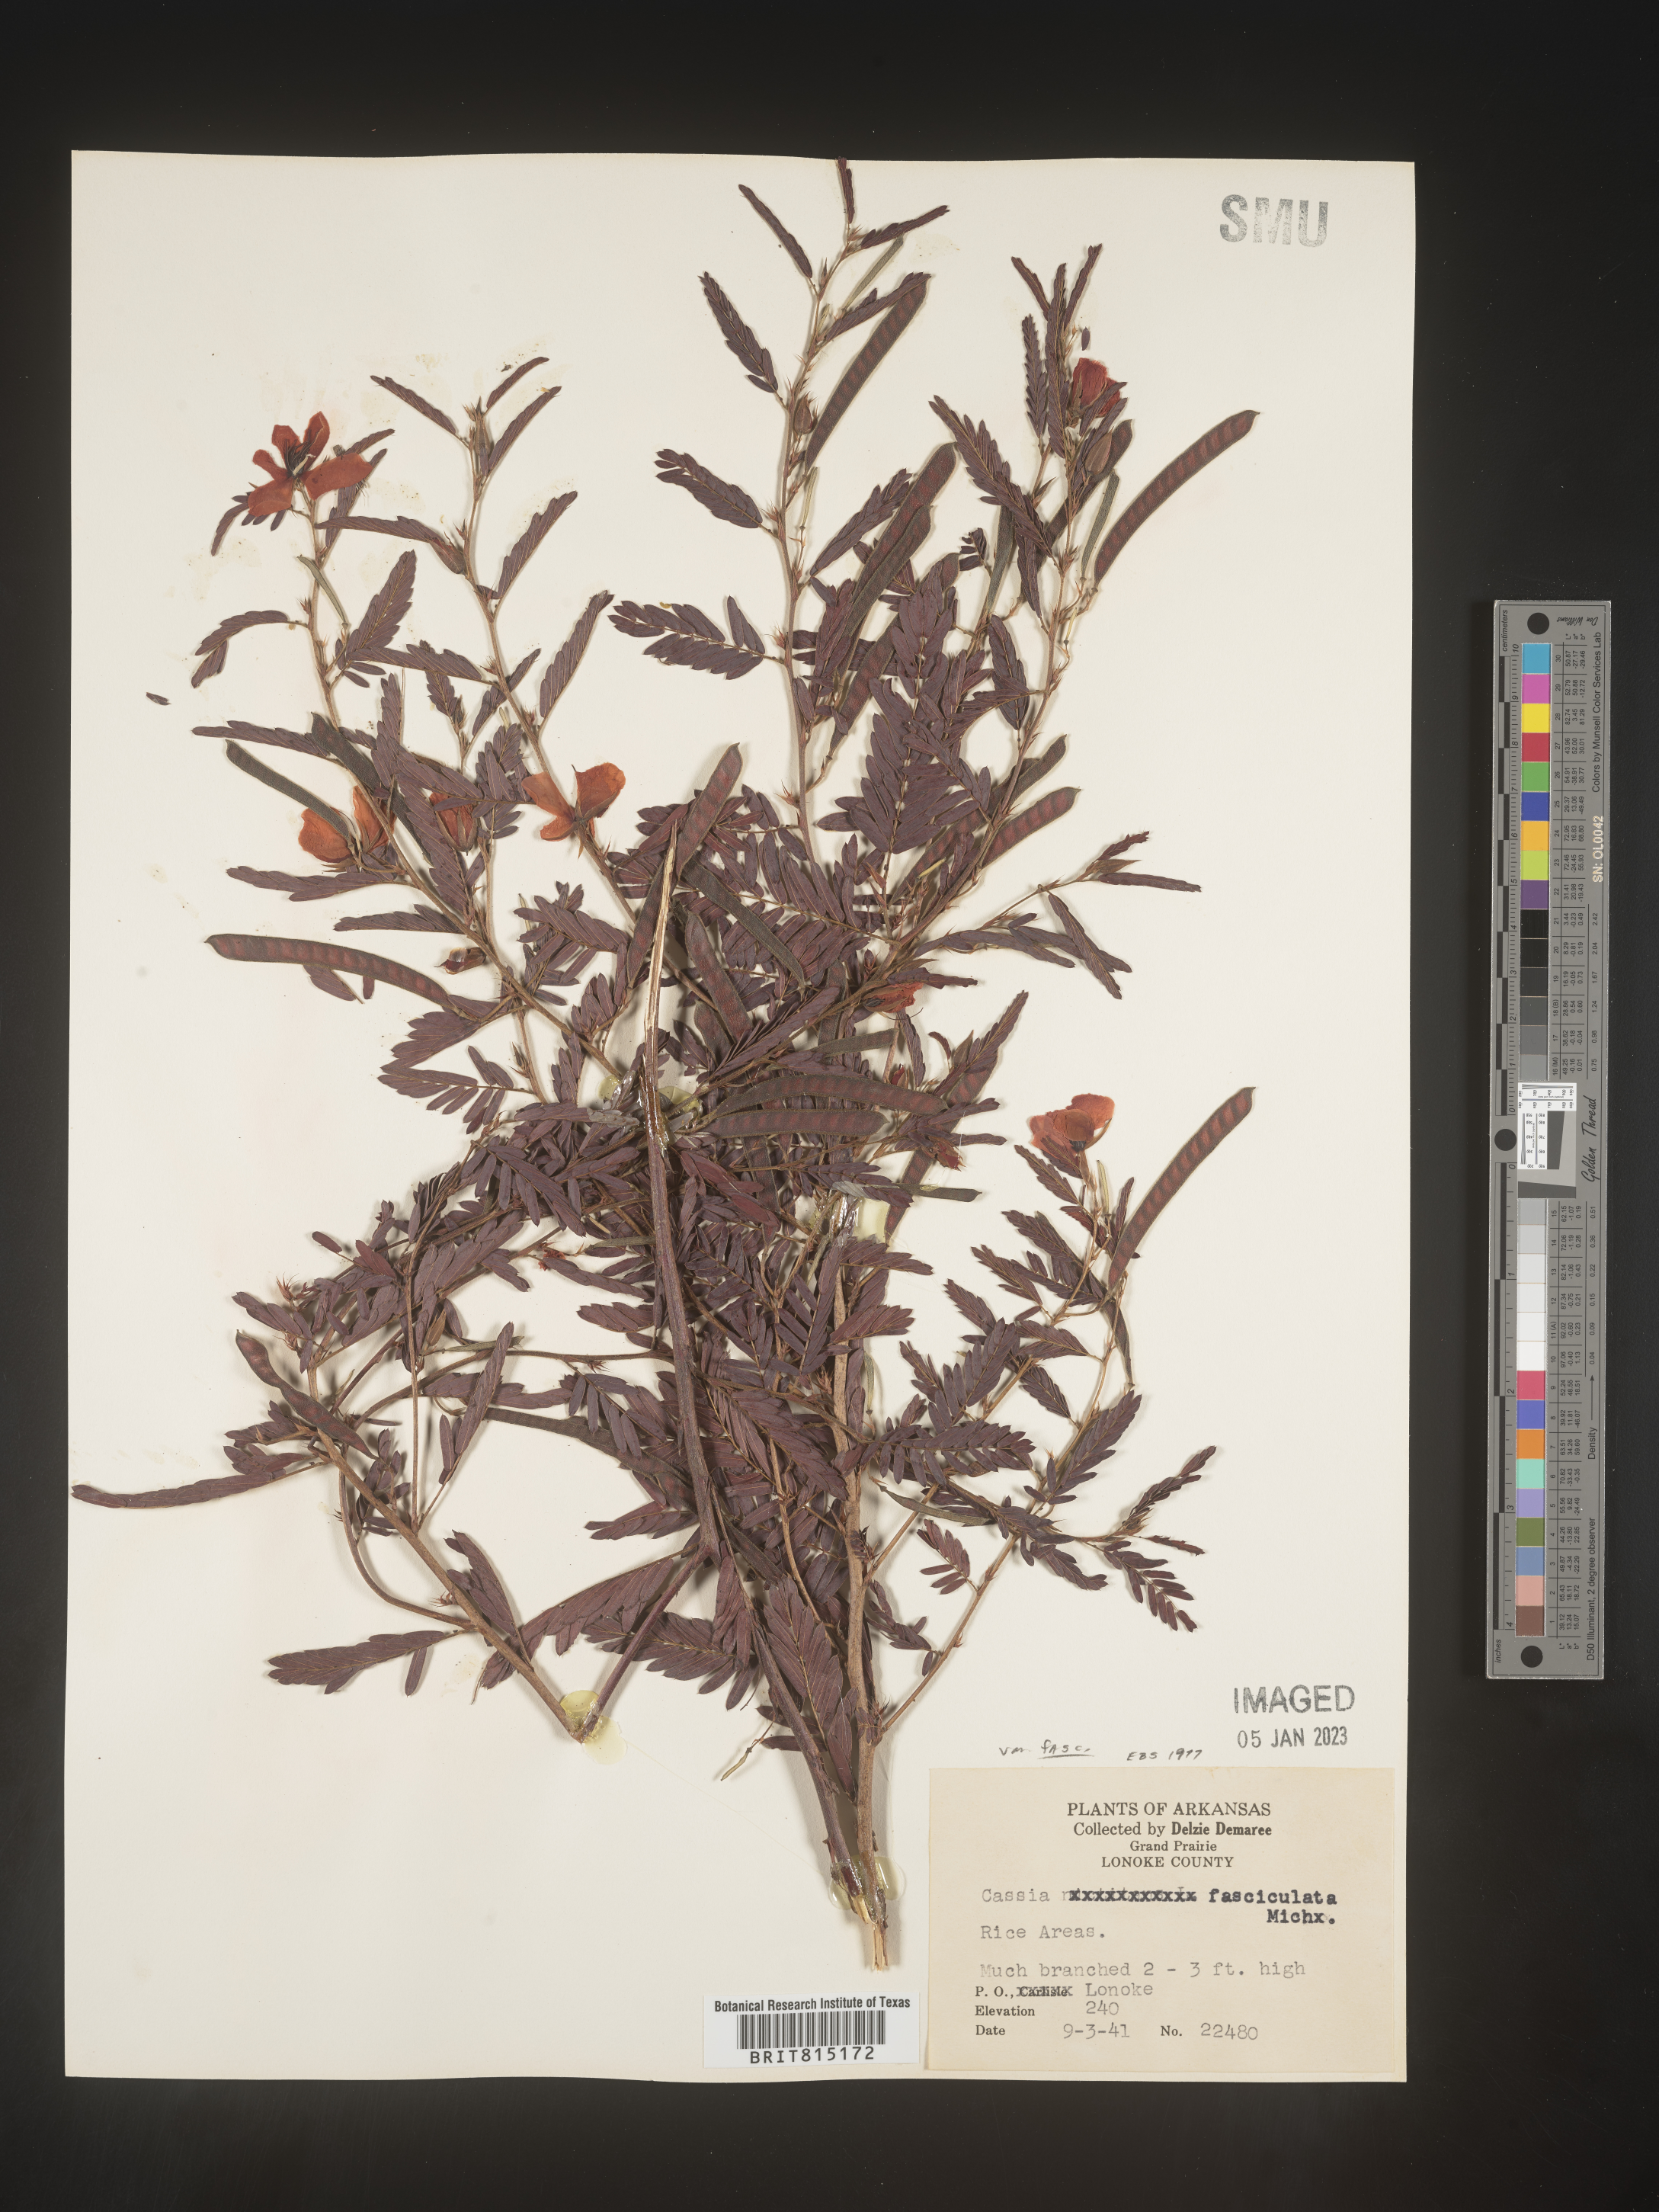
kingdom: Plantae
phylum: Tracheophyta
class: Magnoliopsida
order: Fabales
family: Fabaceae
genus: Chamaecrista
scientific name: Chamaecrista fasciculata
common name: Golden cassia
